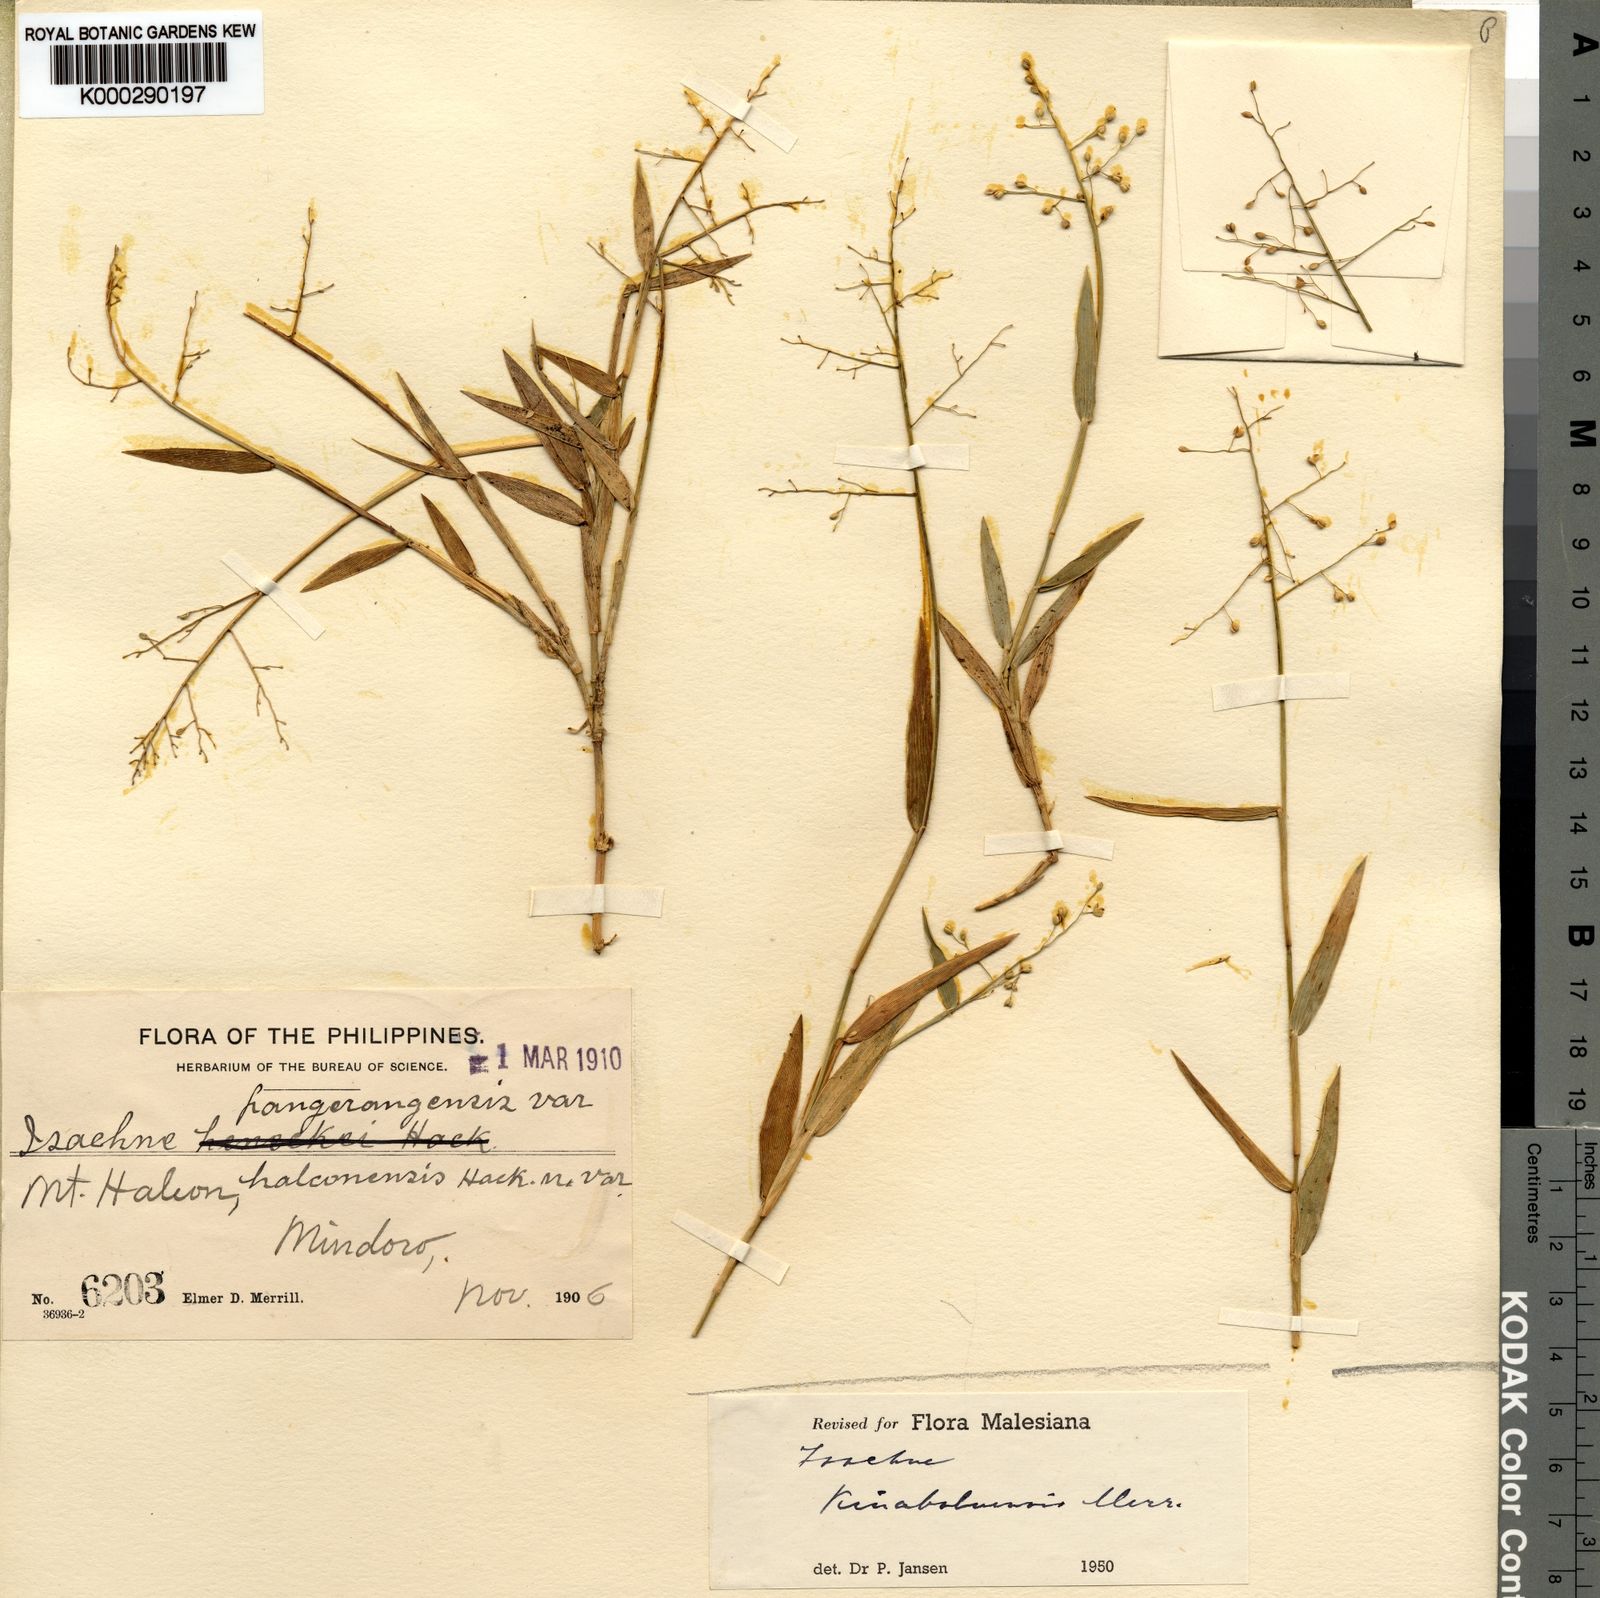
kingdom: Plantae
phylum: Tracheophyta
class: Liliopsida
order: Poales
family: Poaceae
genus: Isachne
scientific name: Isachne pangerangensis
